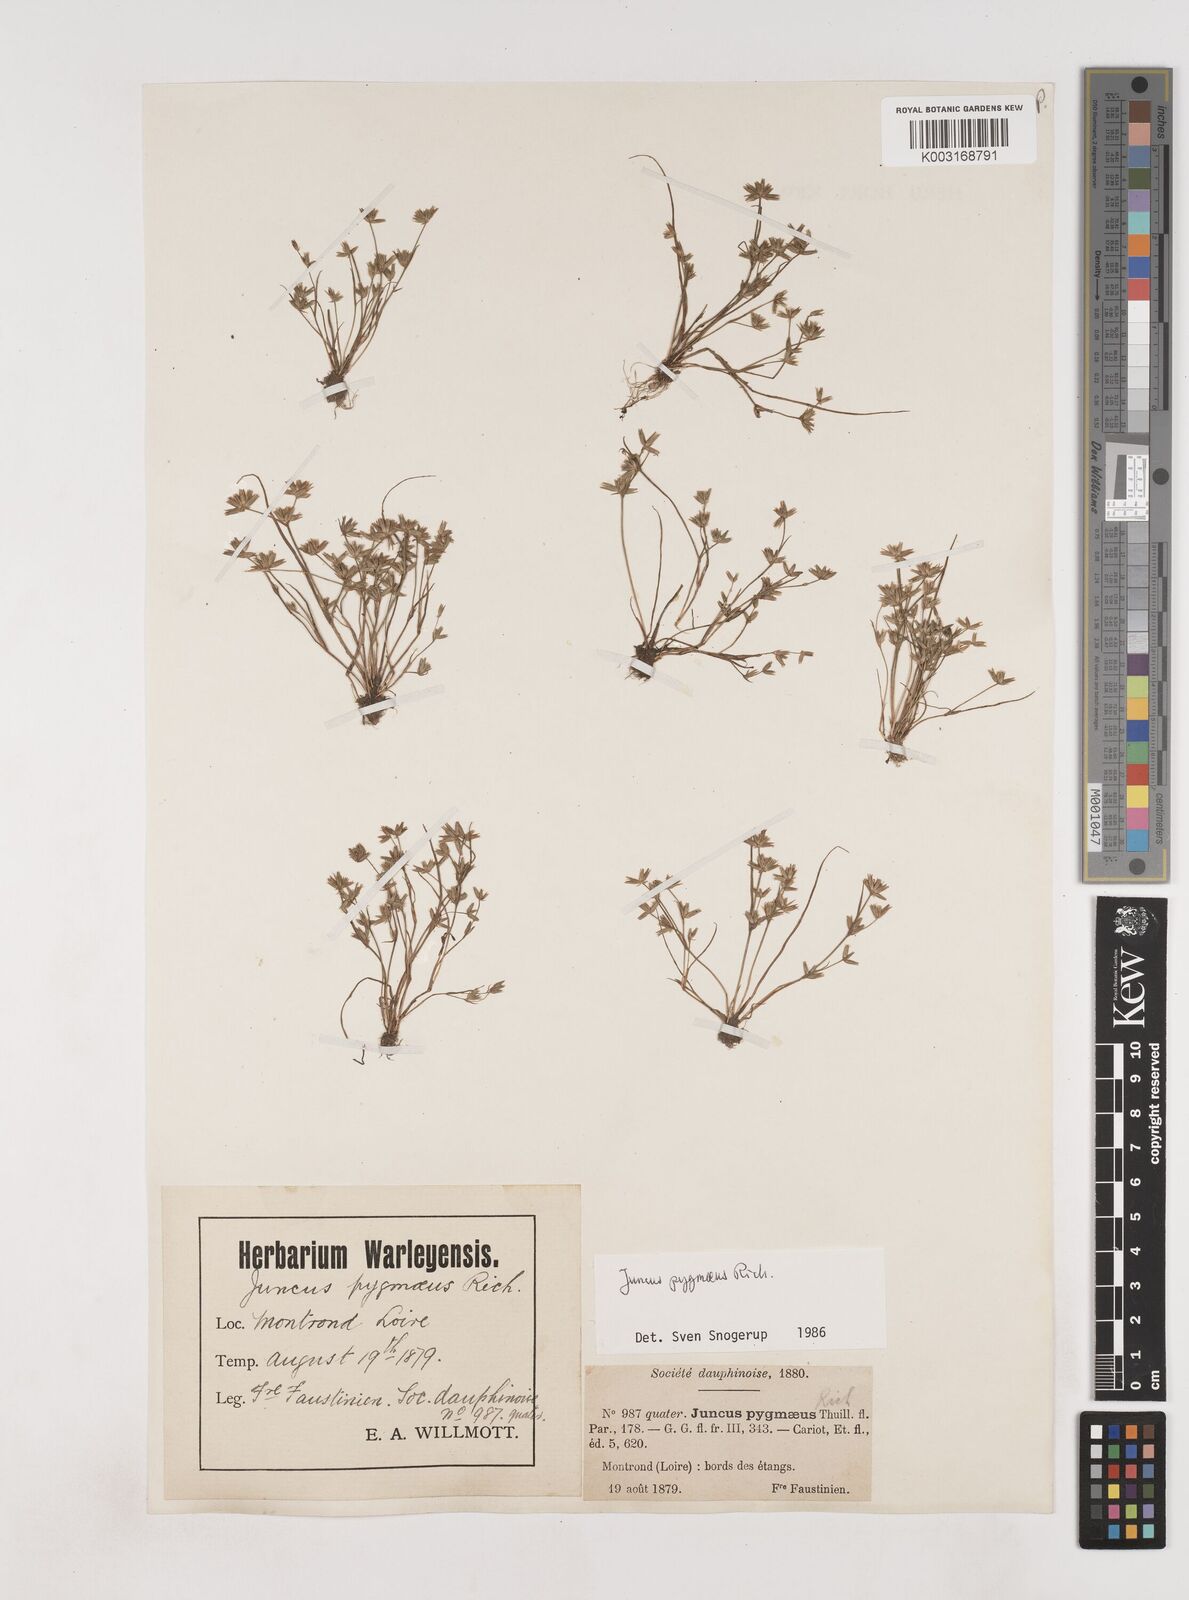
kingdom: Plantae
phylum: Tracheophyta
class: Liliopsida
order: Poales
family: Juncaceae
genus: Juncus
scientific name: Juncus pygmaeus
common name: Pigmy rush
